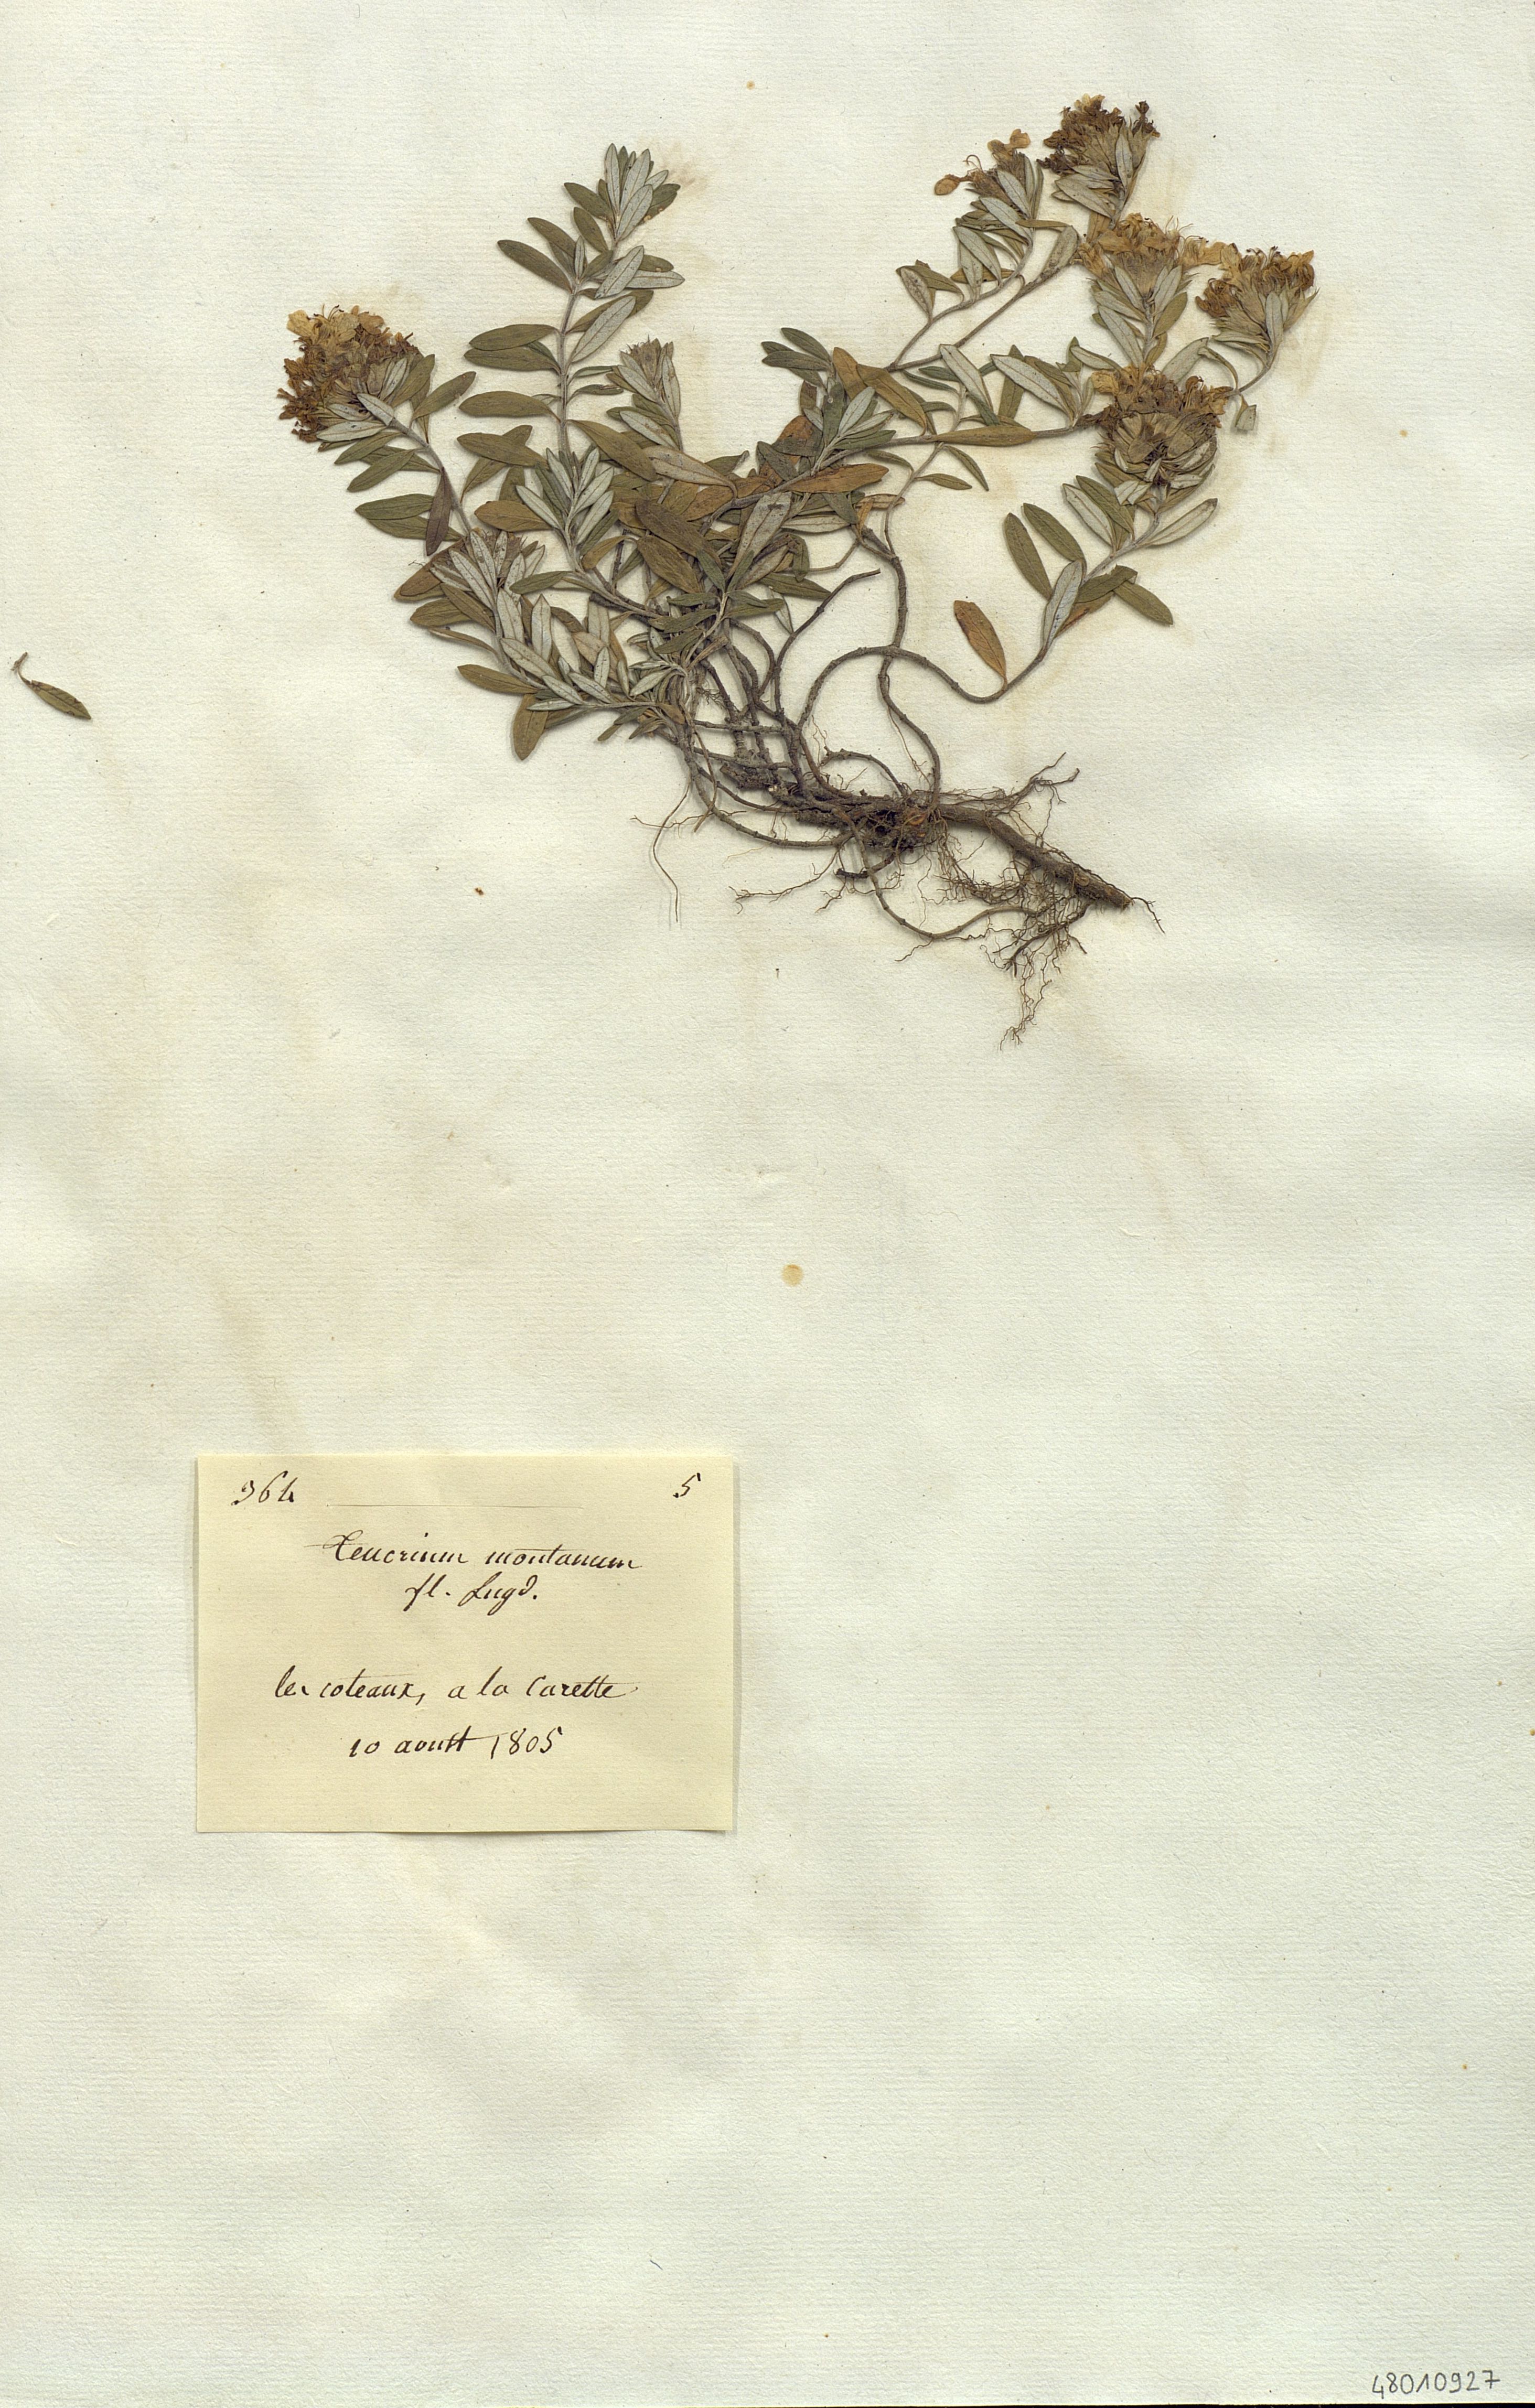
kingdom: Plantae
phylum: Tracheophyta
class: Magnoliopsida
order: Lamiales
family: Lamiaceae
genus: Teucrium
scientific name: Teucrium montanum
